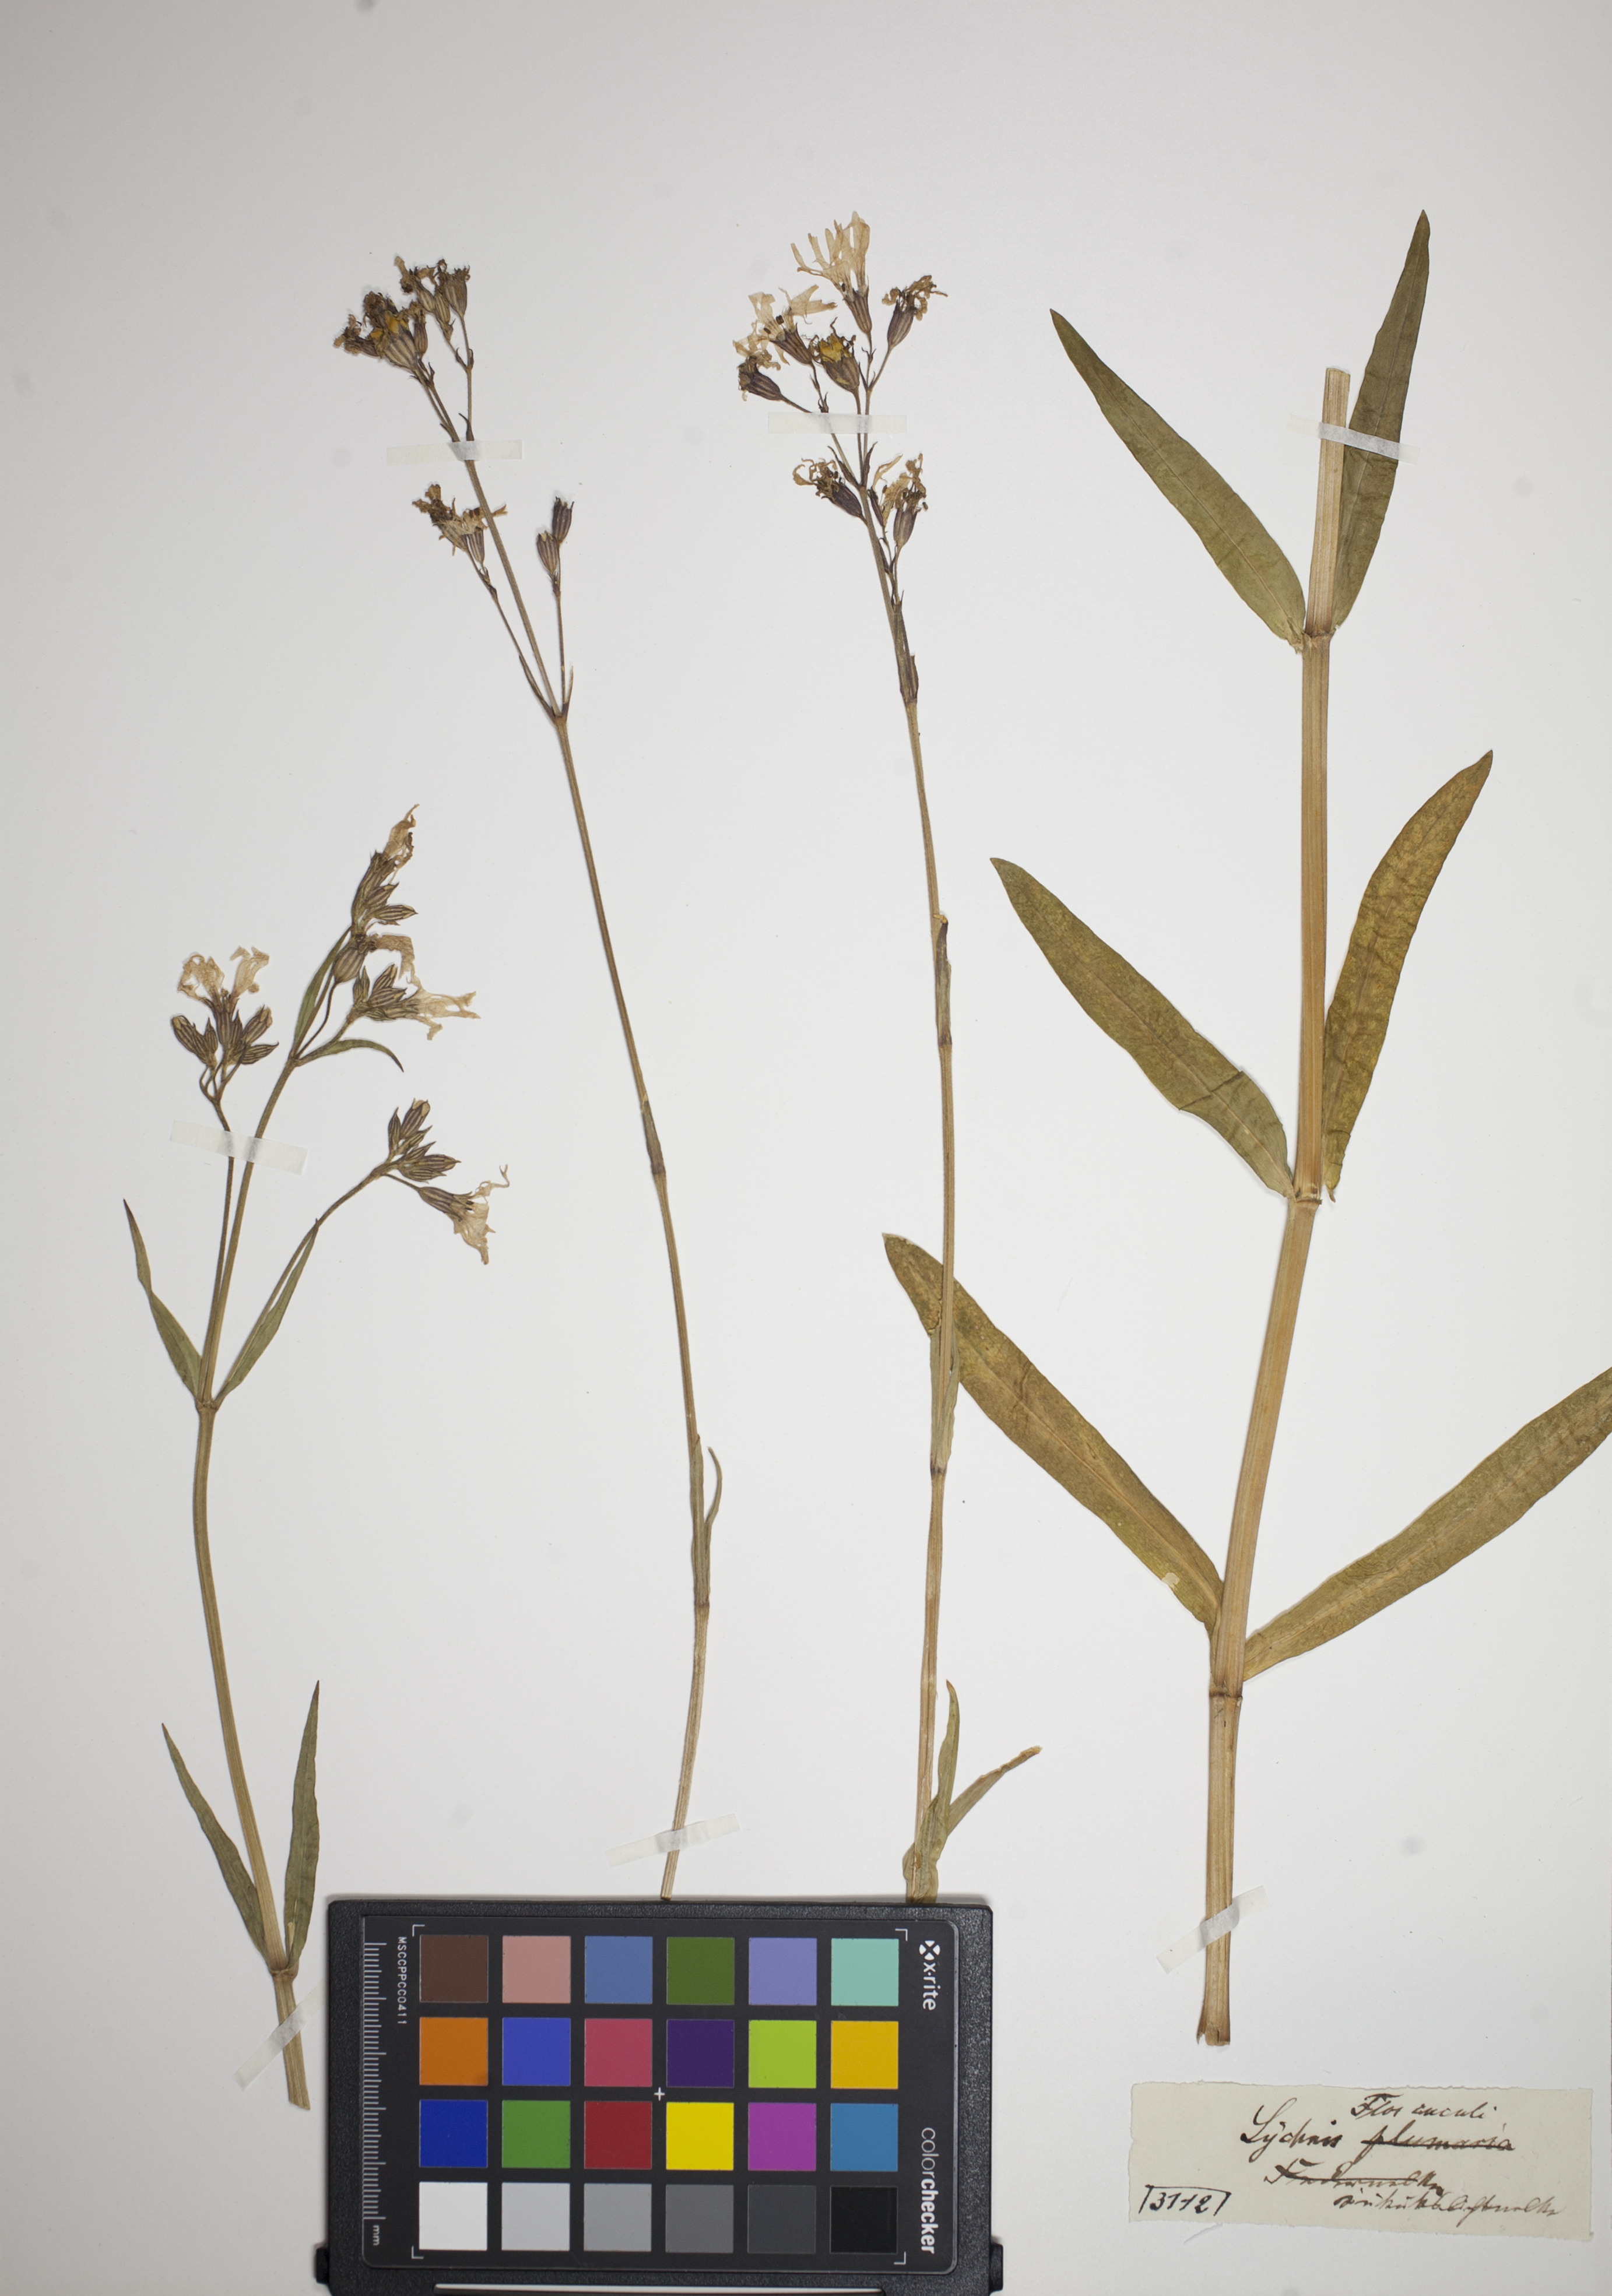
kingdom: Plantae
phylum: Tracheophyta
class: Magnoliopsida
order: Caryophyllales
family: Caryophyllaceae
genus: Silene
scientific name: Silene flos-cuculi
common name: Ragged-robin
